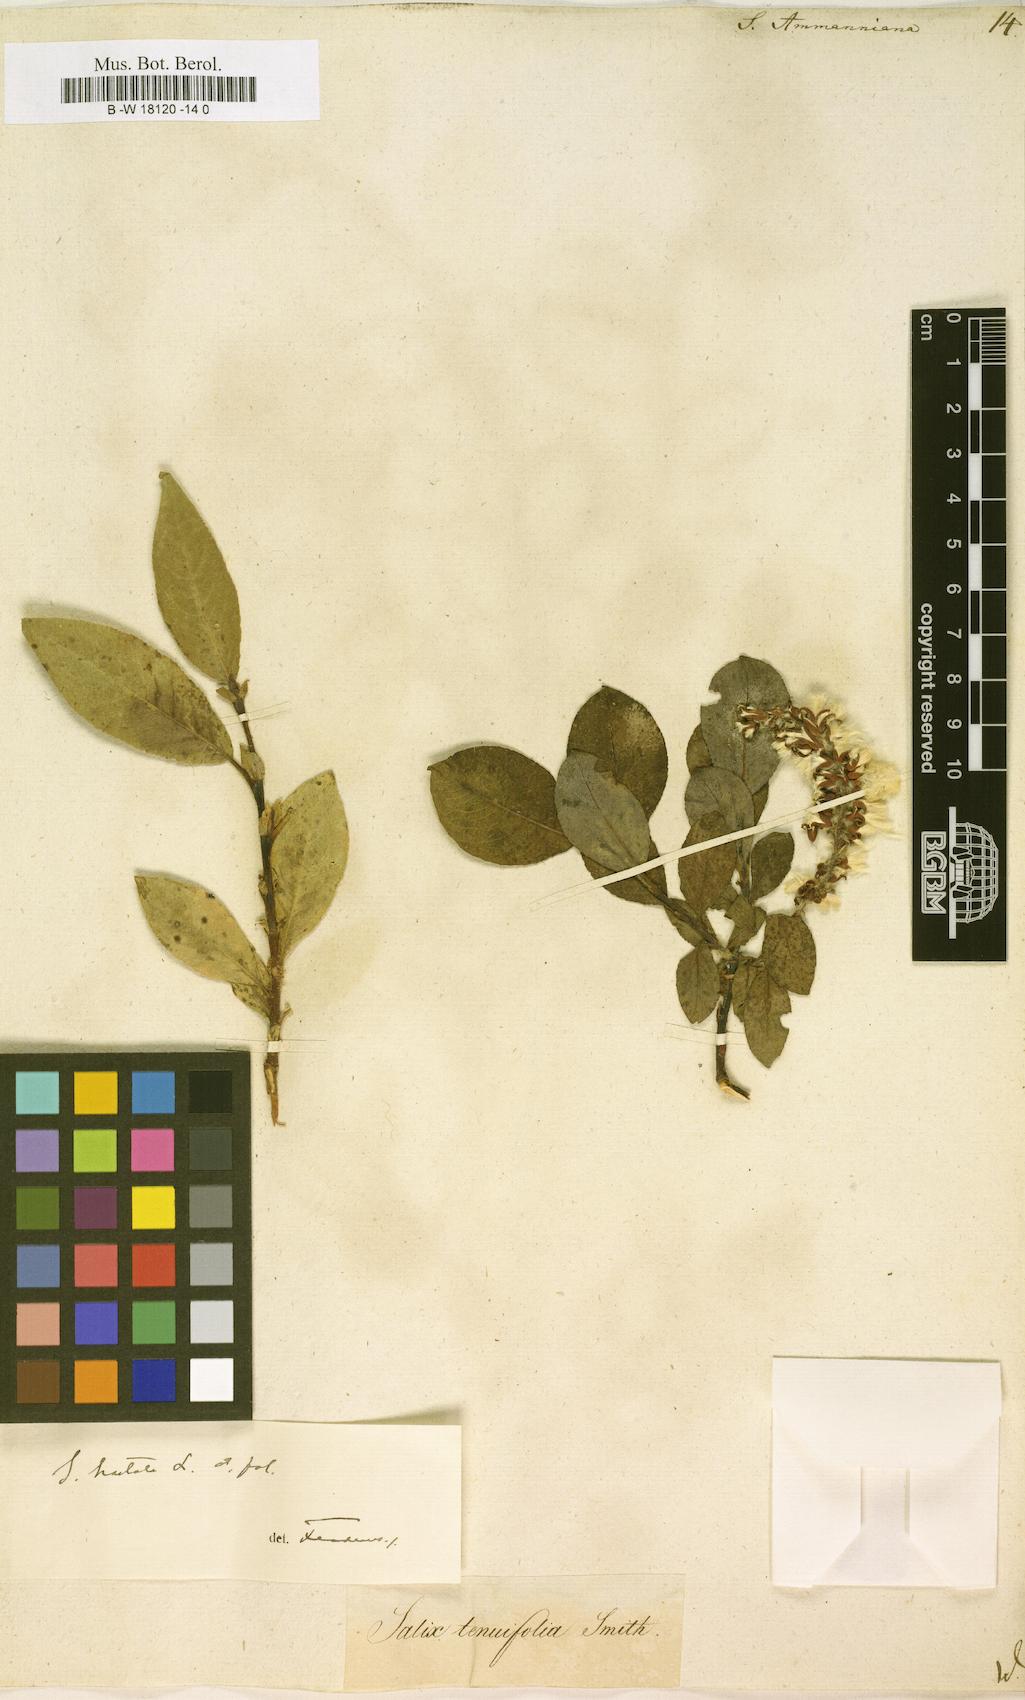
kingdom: Plantae
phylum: Tracheophyta
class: Magnoliopsida
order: Malpighiales
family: Salicaceae
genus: Salix
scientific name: Salix myrsinifolia
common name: Dark-leaved willow
